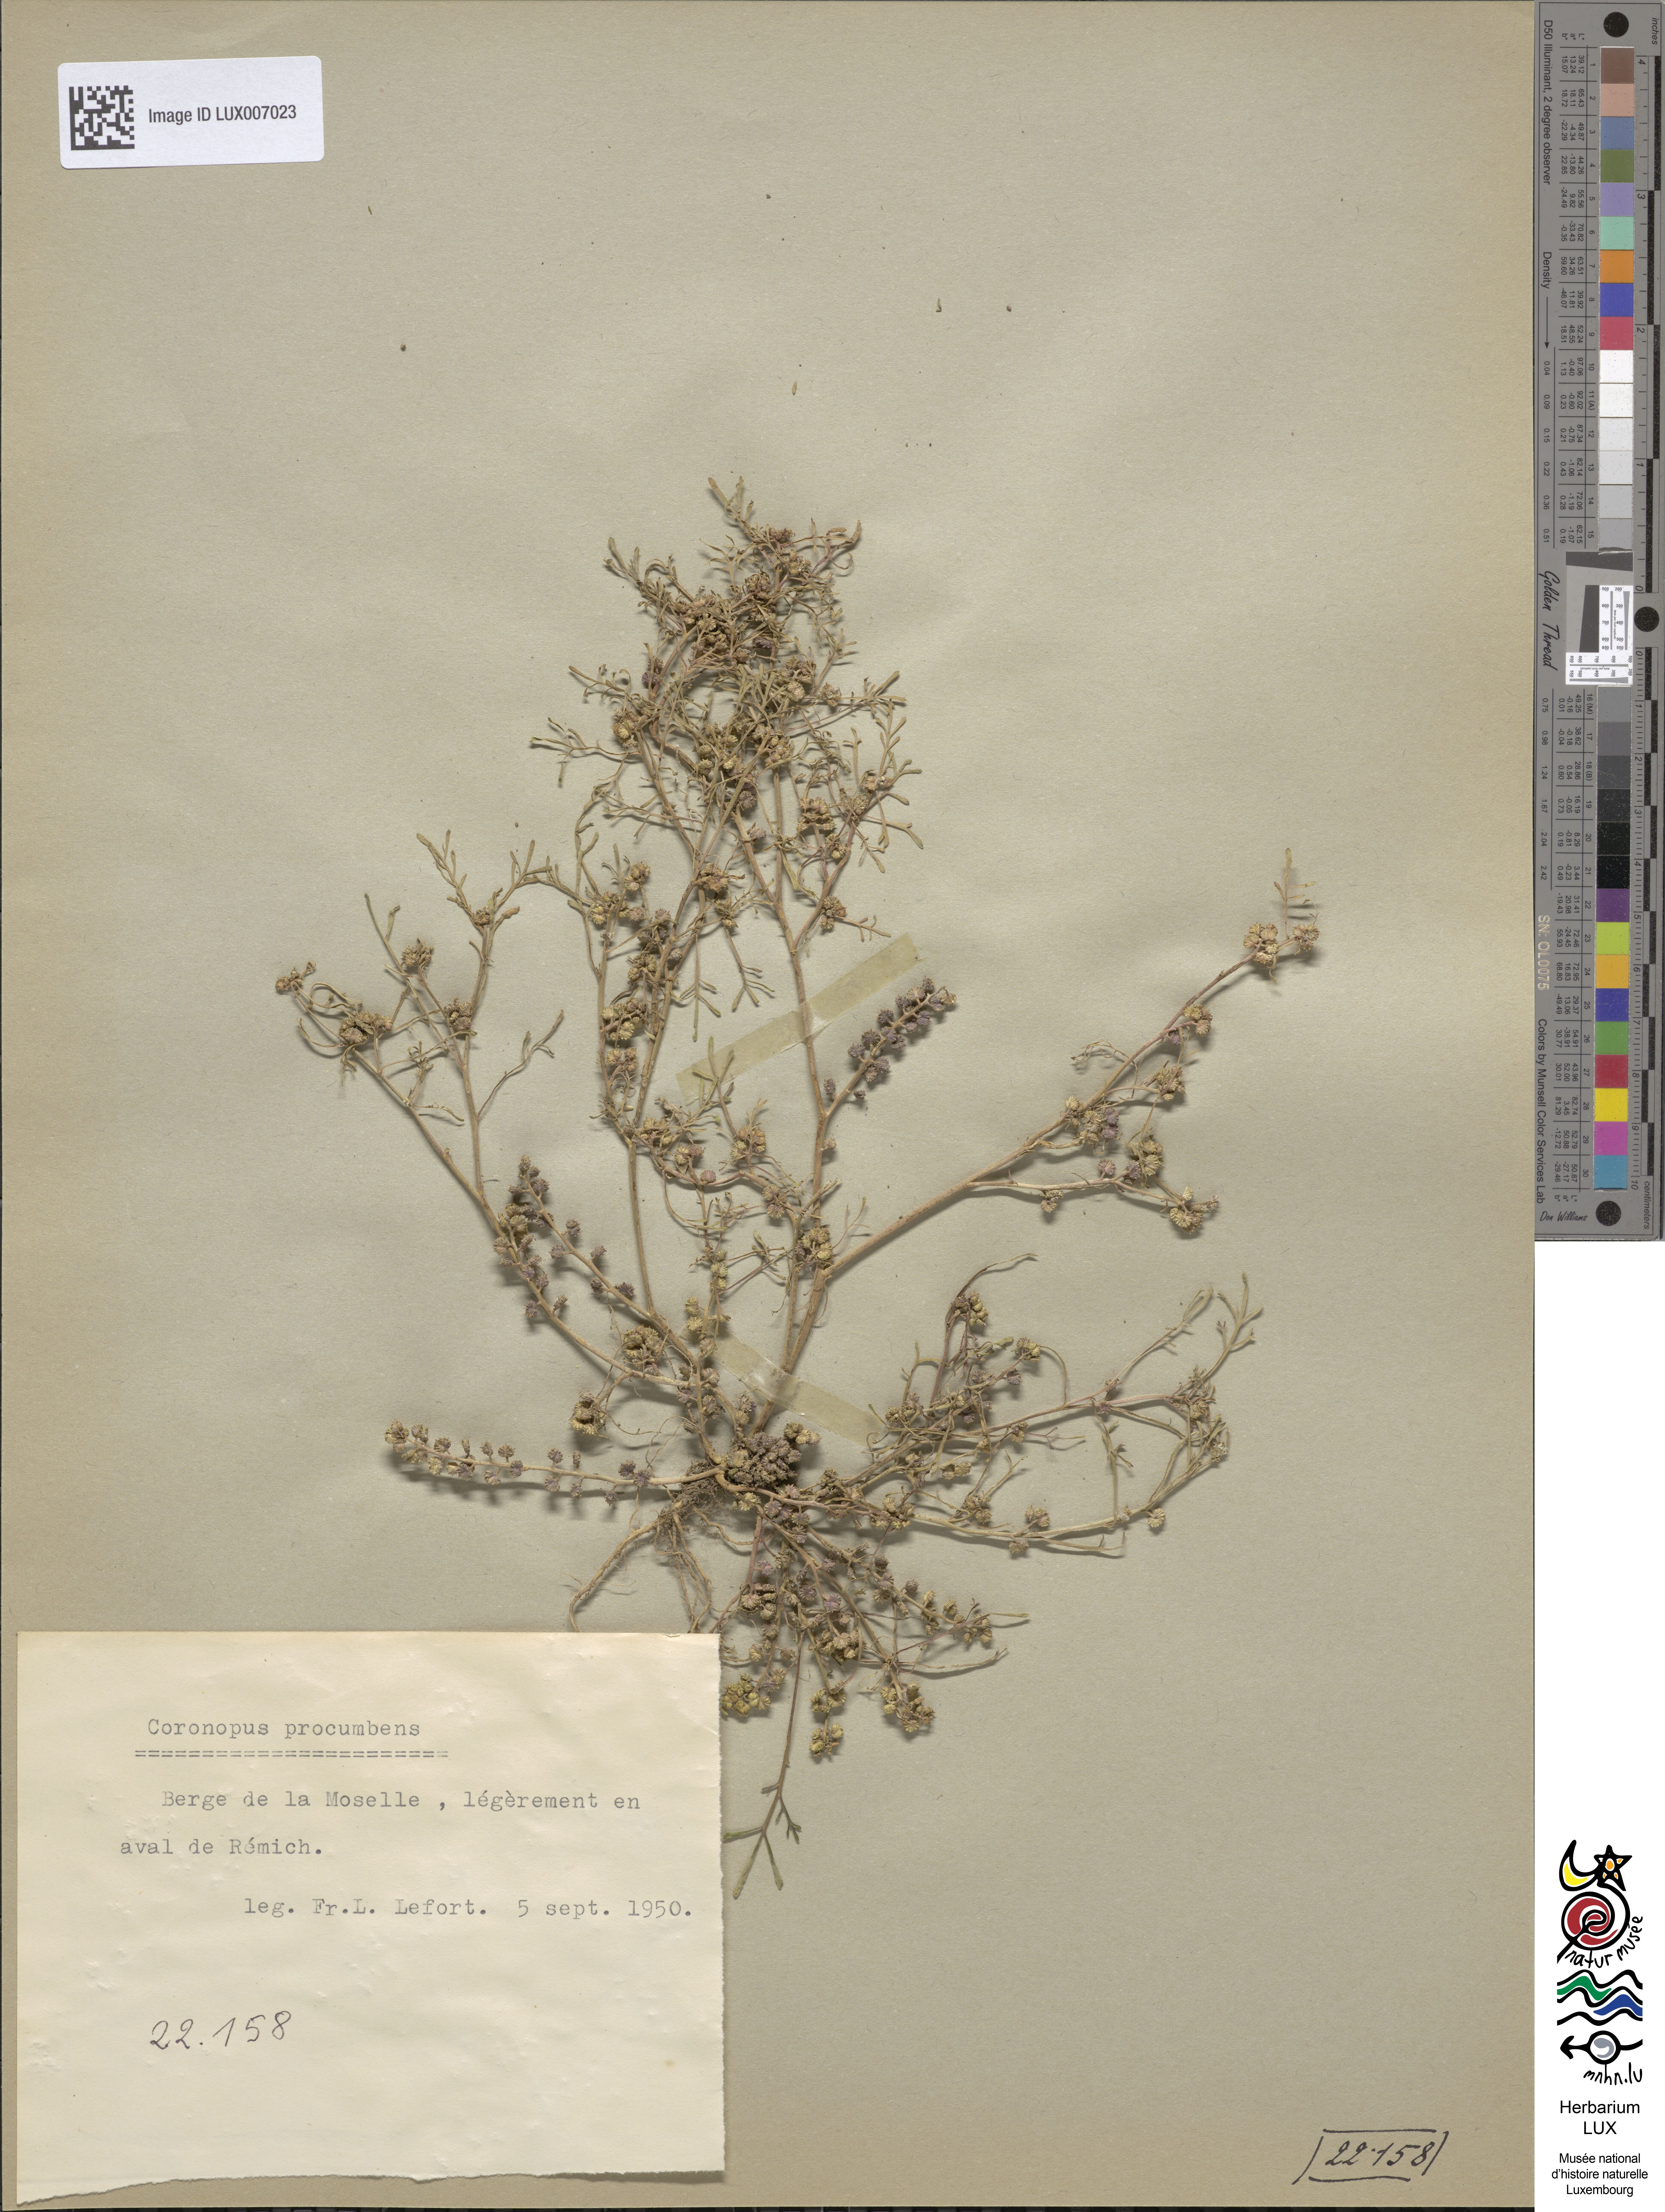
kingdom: Plantae
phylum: Tracheophyta
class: Magnoliopsida
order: Brassicales
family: Brassicaceae
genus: Lepidium
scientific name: Lepidium coronopus
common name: Greater swinecress
